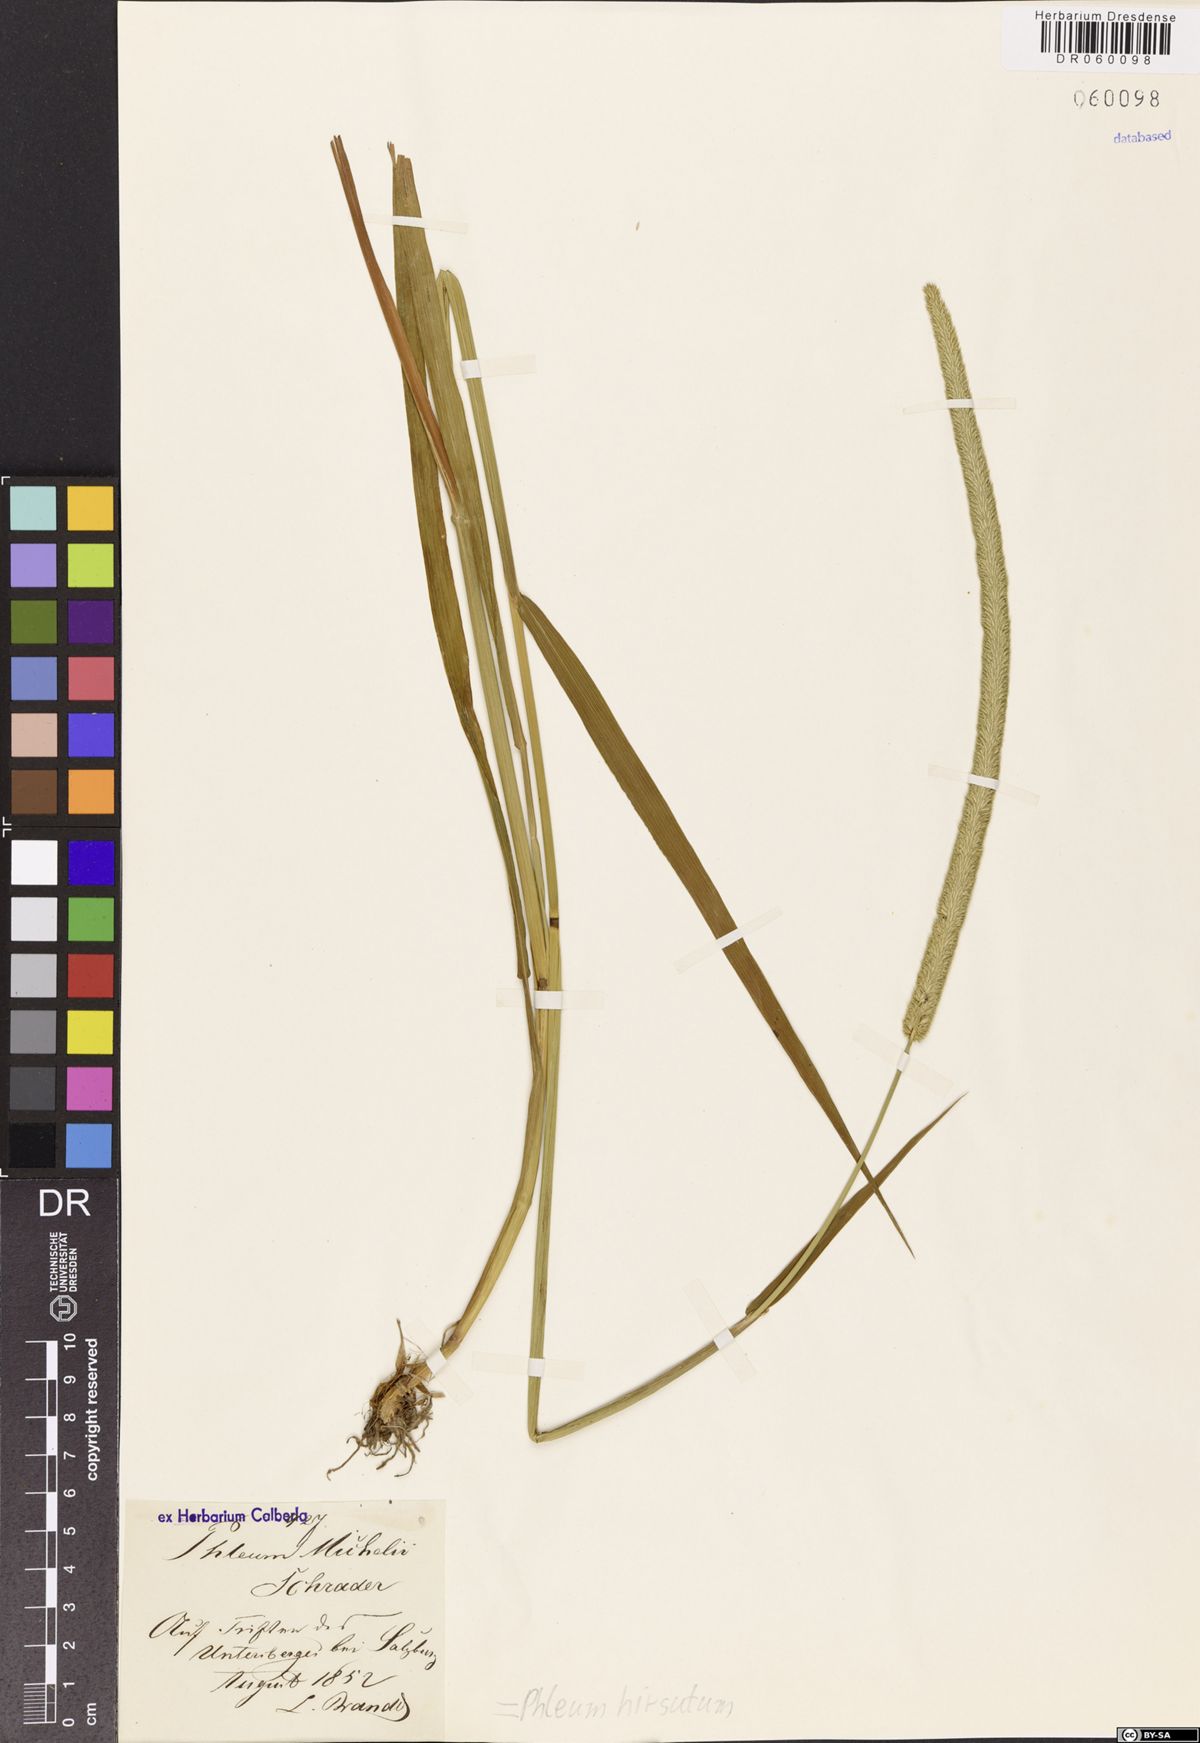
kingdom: Plantae
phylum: Tracheophyta
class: Liliopsida
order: Poales
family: Poaceae
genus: Phleum
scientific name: Phleum hirsutum
